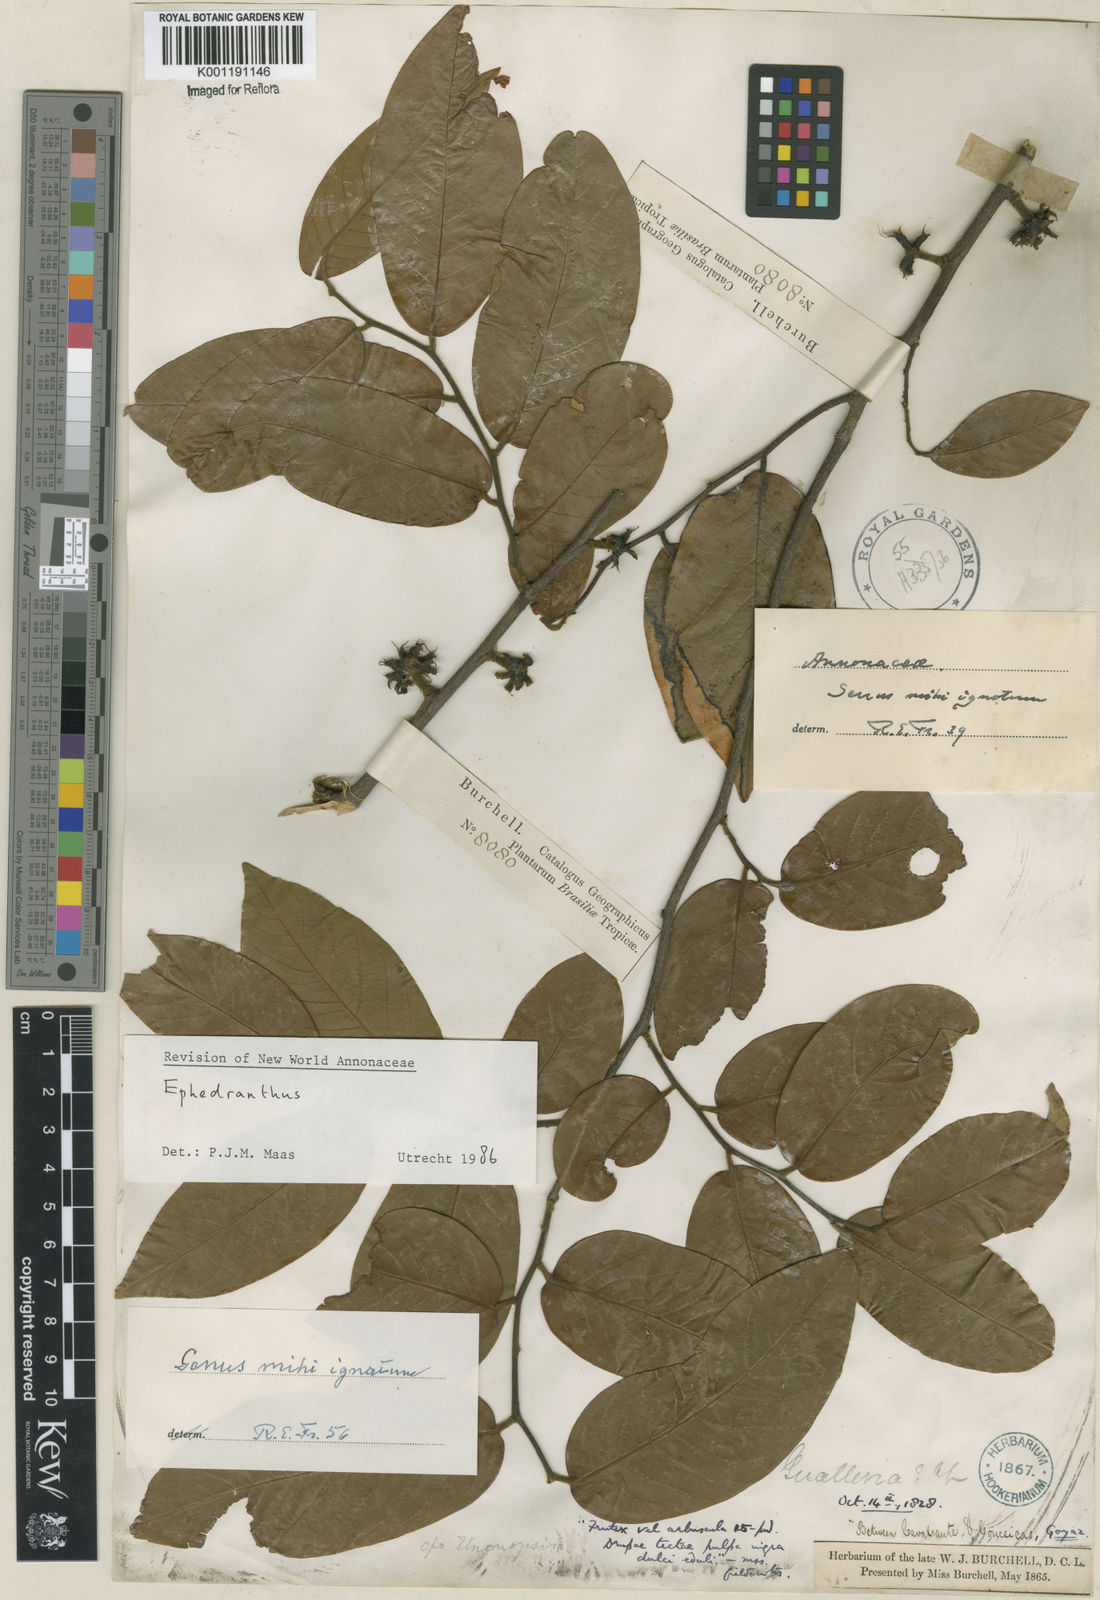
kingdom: Plantae
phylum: Tracheophyta
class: Magnoliopsida
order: Magnoliales
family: Annonaceae
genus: Ephedranthus
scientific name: Ephedranthus
